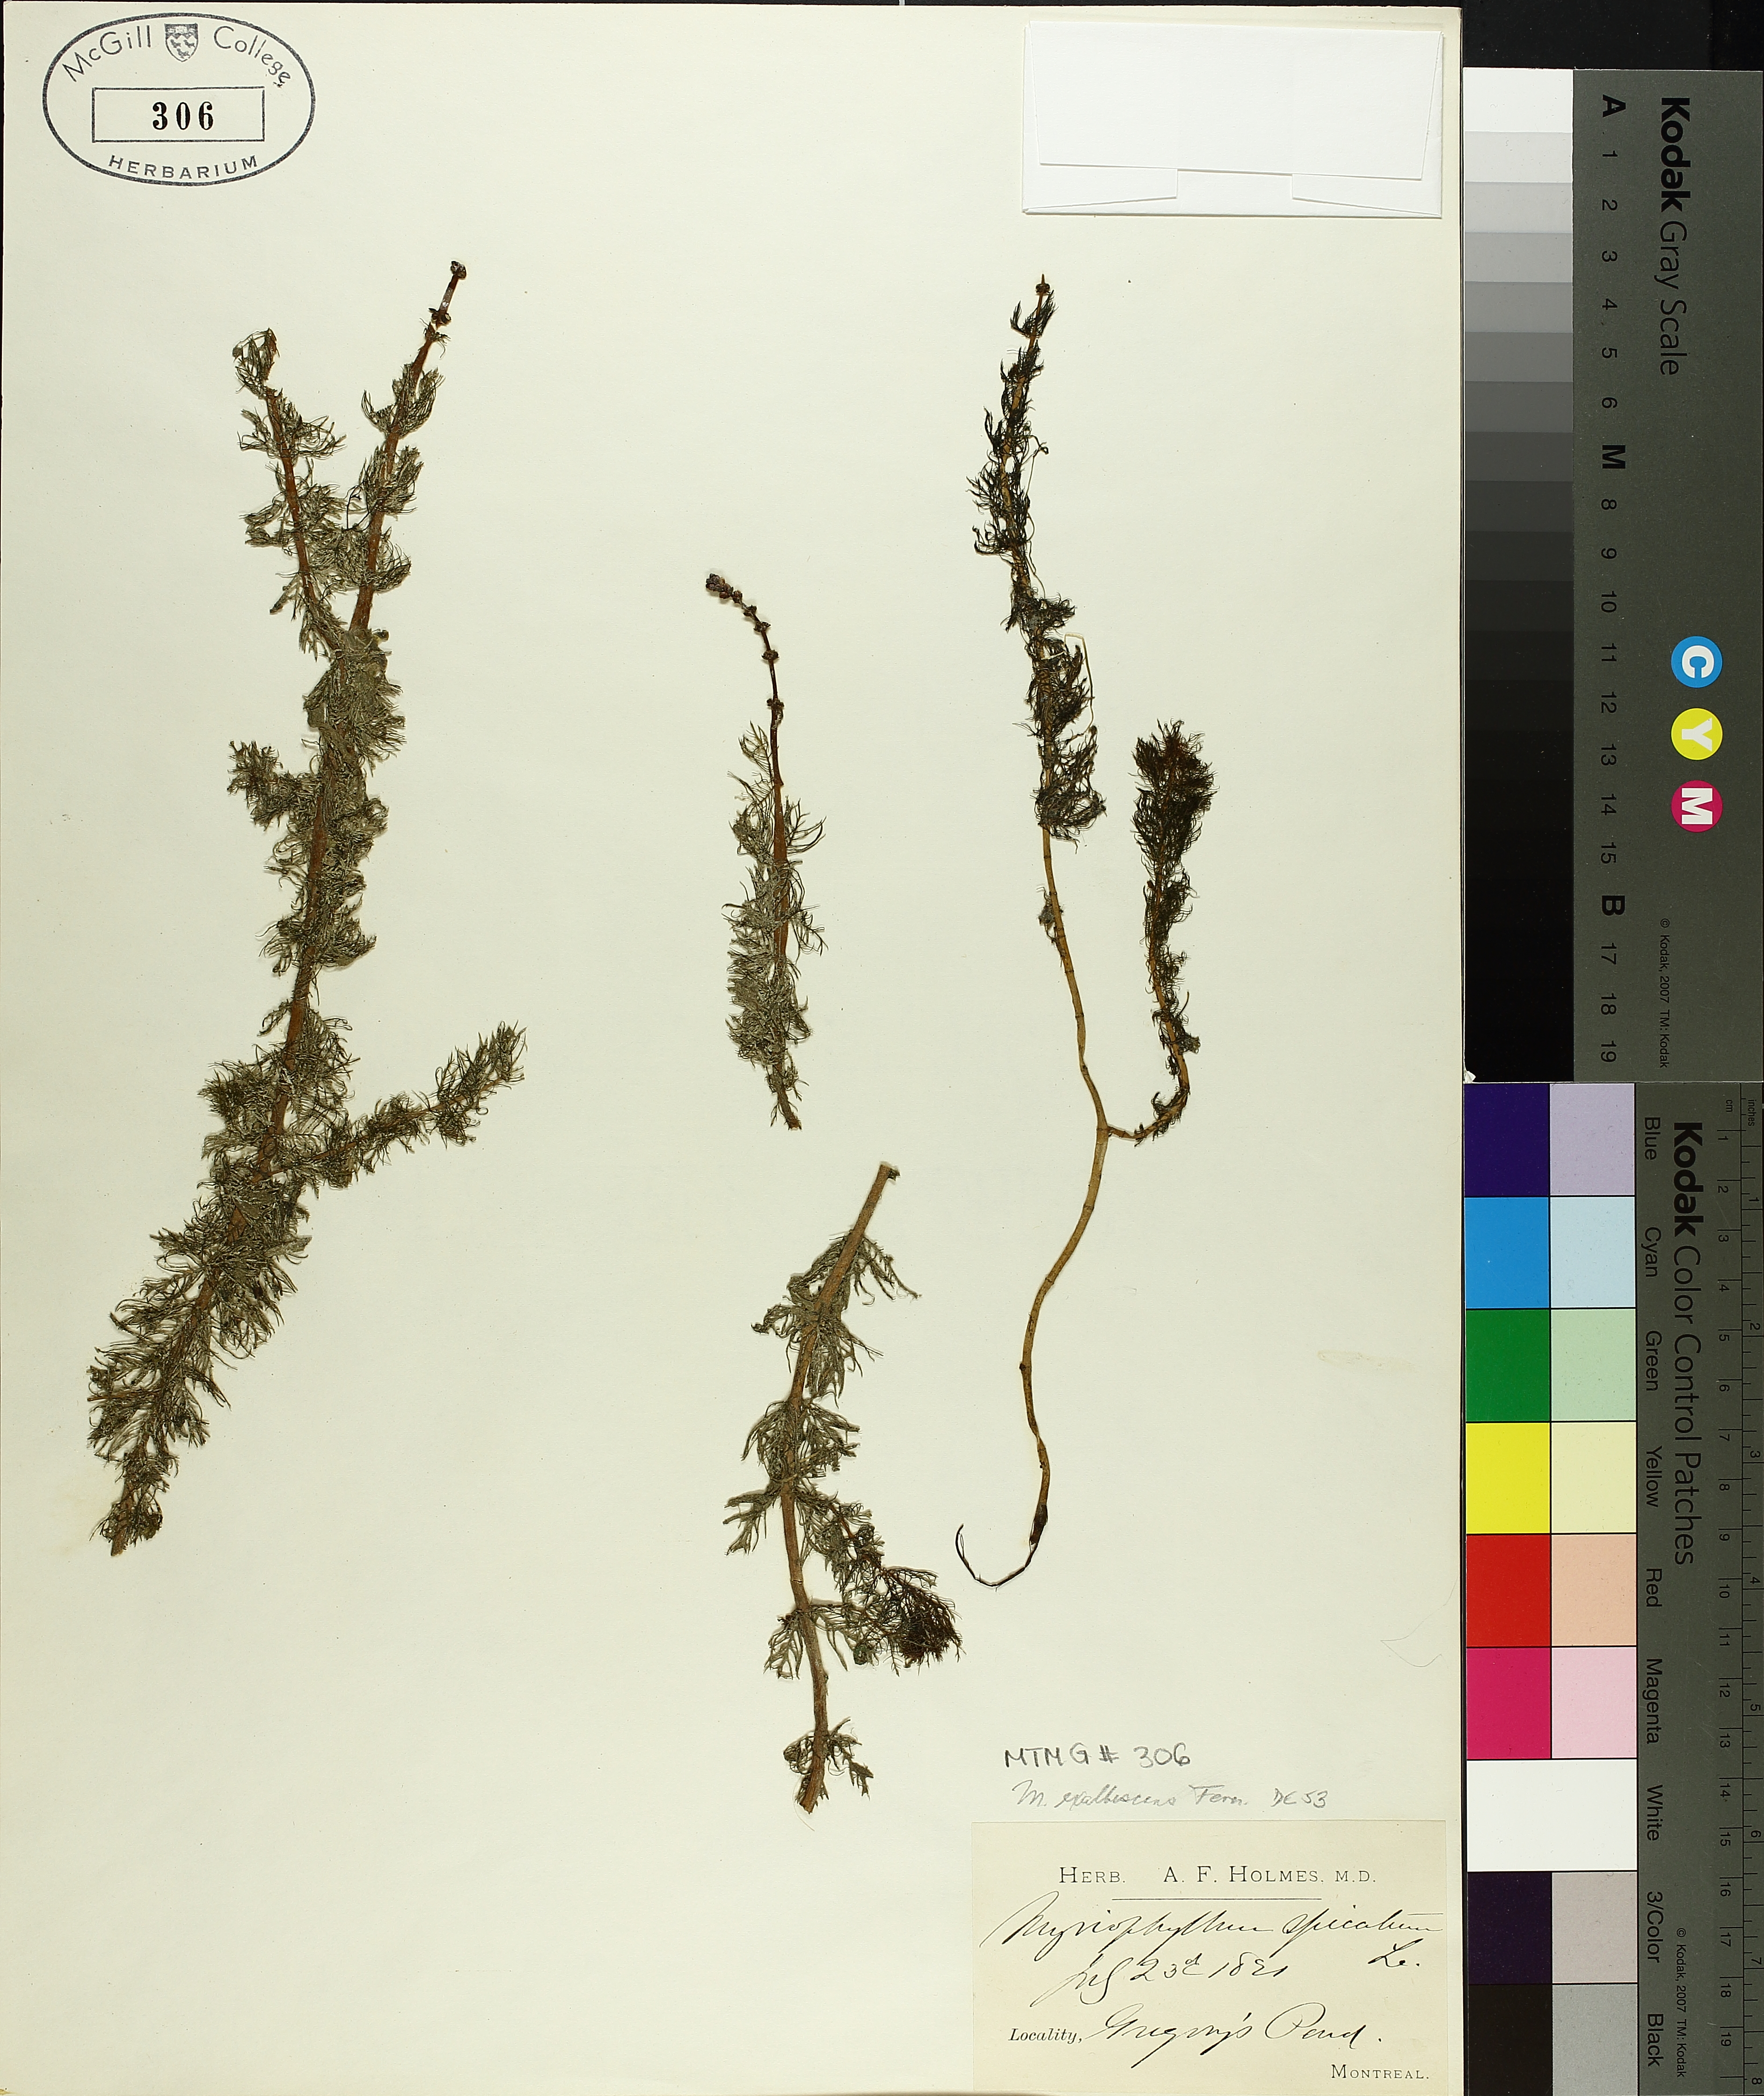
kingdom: Plantae
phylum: Tracheophyta
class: Magnoliopsida
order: Asterales
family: Goodeniaceae
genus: Scaevola
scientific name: Scaevola
